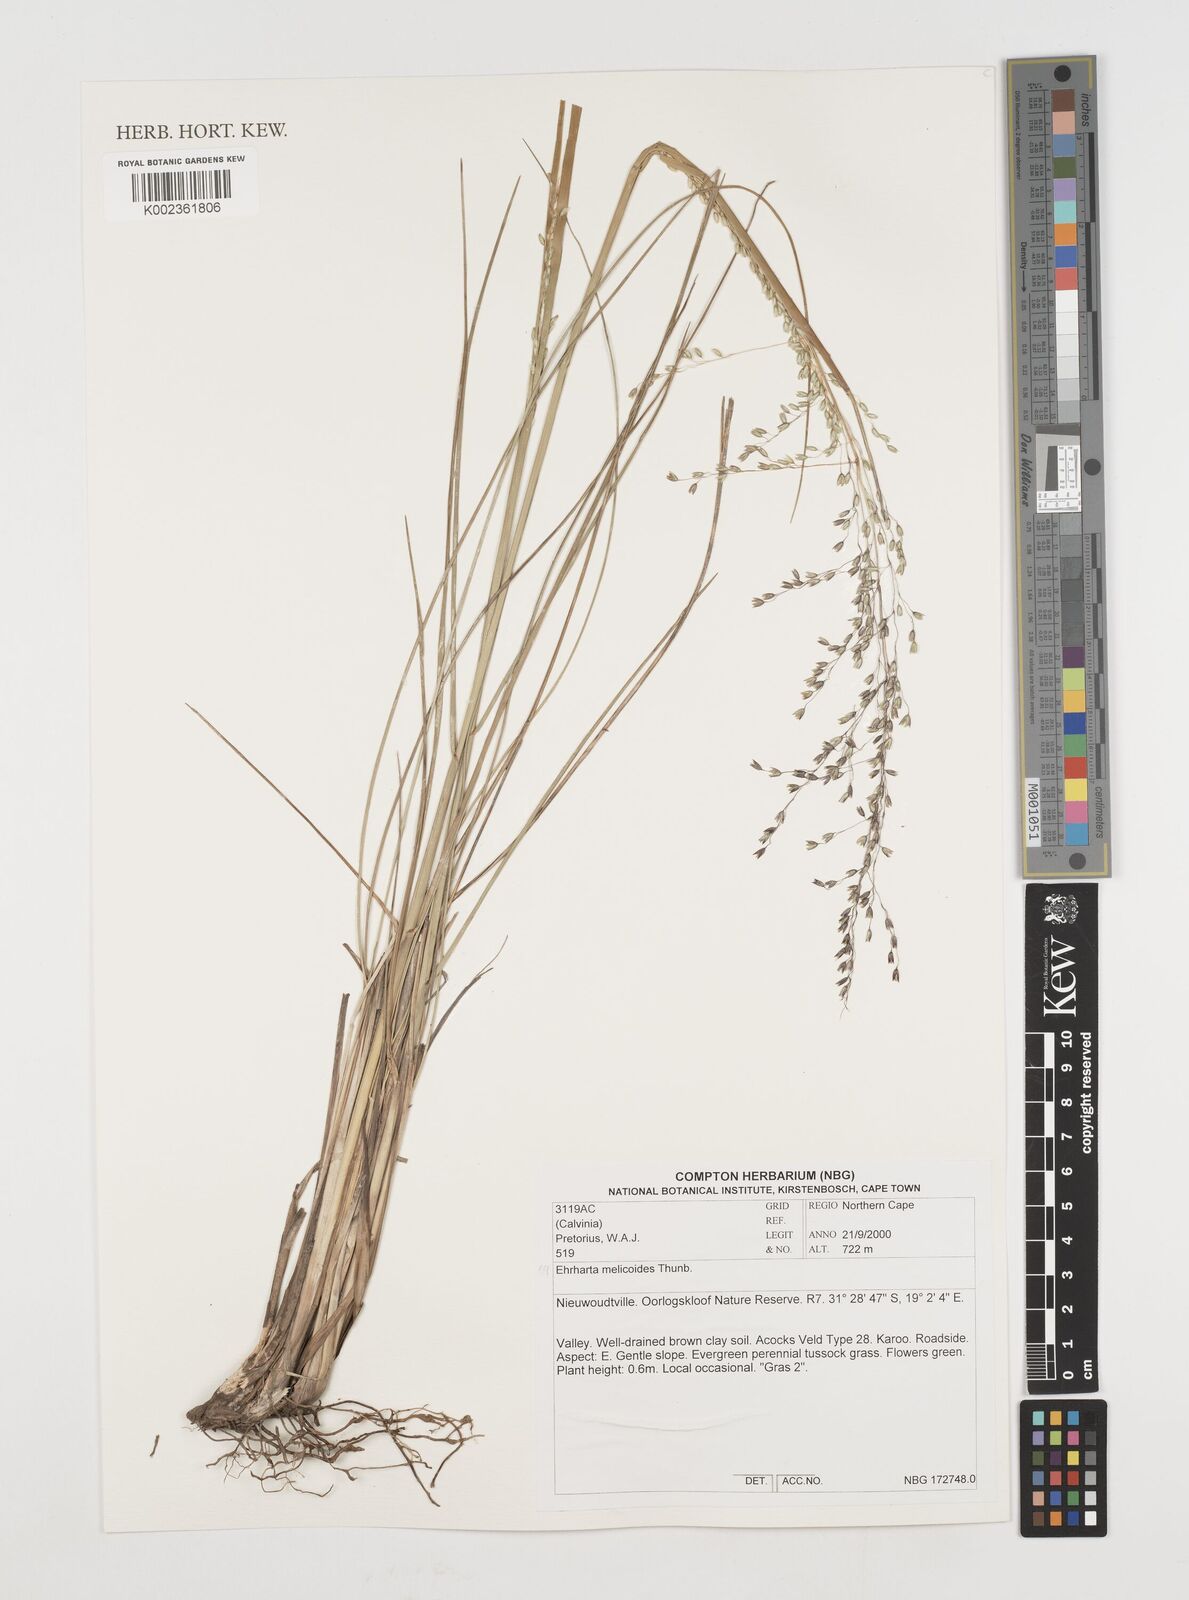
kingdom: Plantae
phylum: Tracheophyta
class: Liliopsida
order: Poales
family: Poaceae
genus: Ehrharta
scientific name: Ehrharta melicoides
